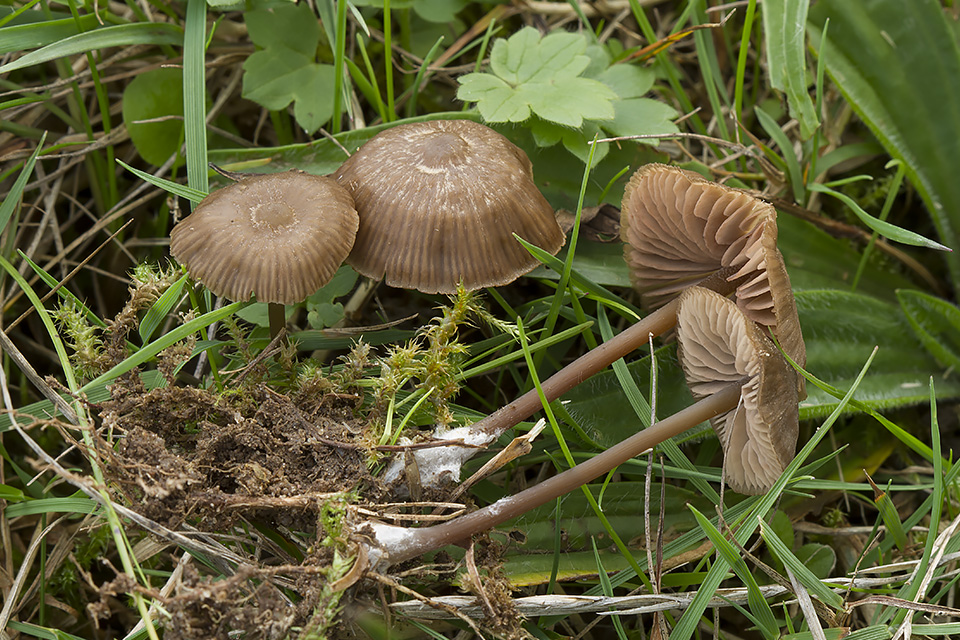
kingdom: Fungi
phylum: Basidiomycota
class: Agaricomycetes
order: Agaricales
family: Entolomataceae
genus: Entoloma
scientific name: Entoloma clandestinum
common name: tykbladet rødblad
